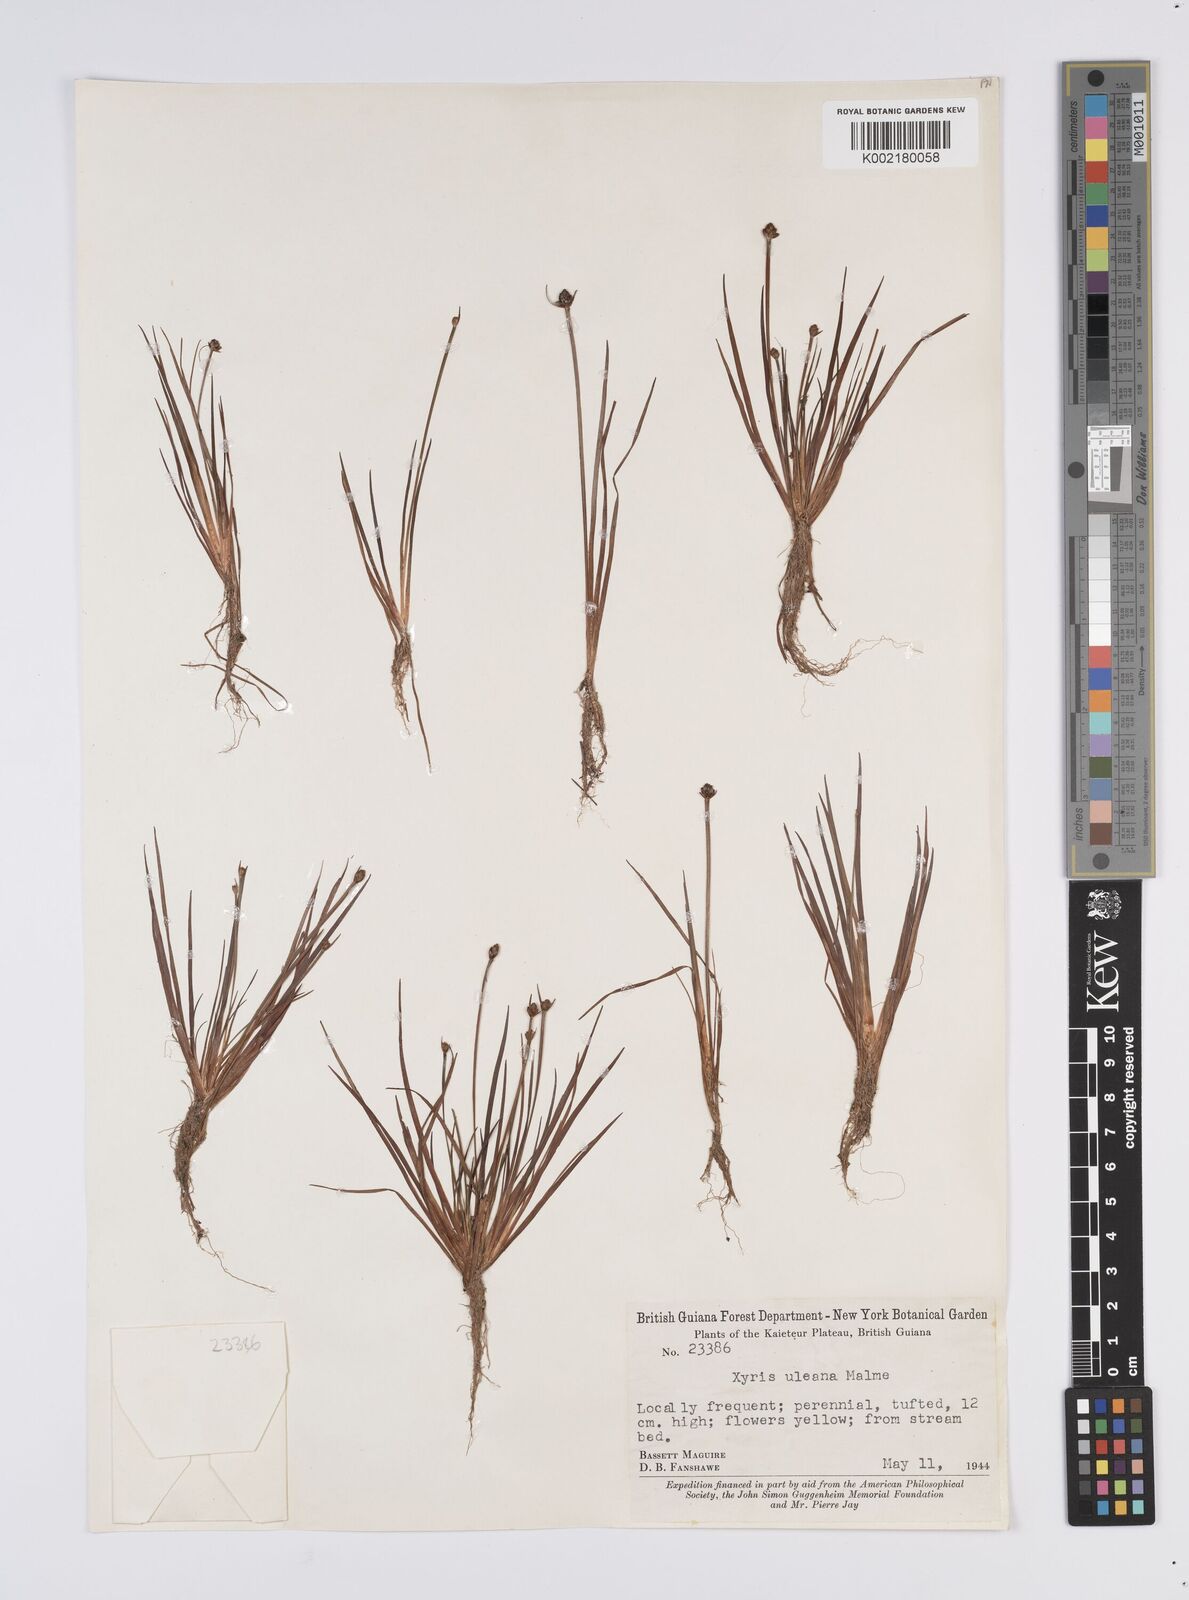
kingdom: Plantae
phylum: Tracheophyta
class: Liliopsida
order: Poales
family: Xyridaceae
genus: Xyris
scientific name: Xyris uleana
